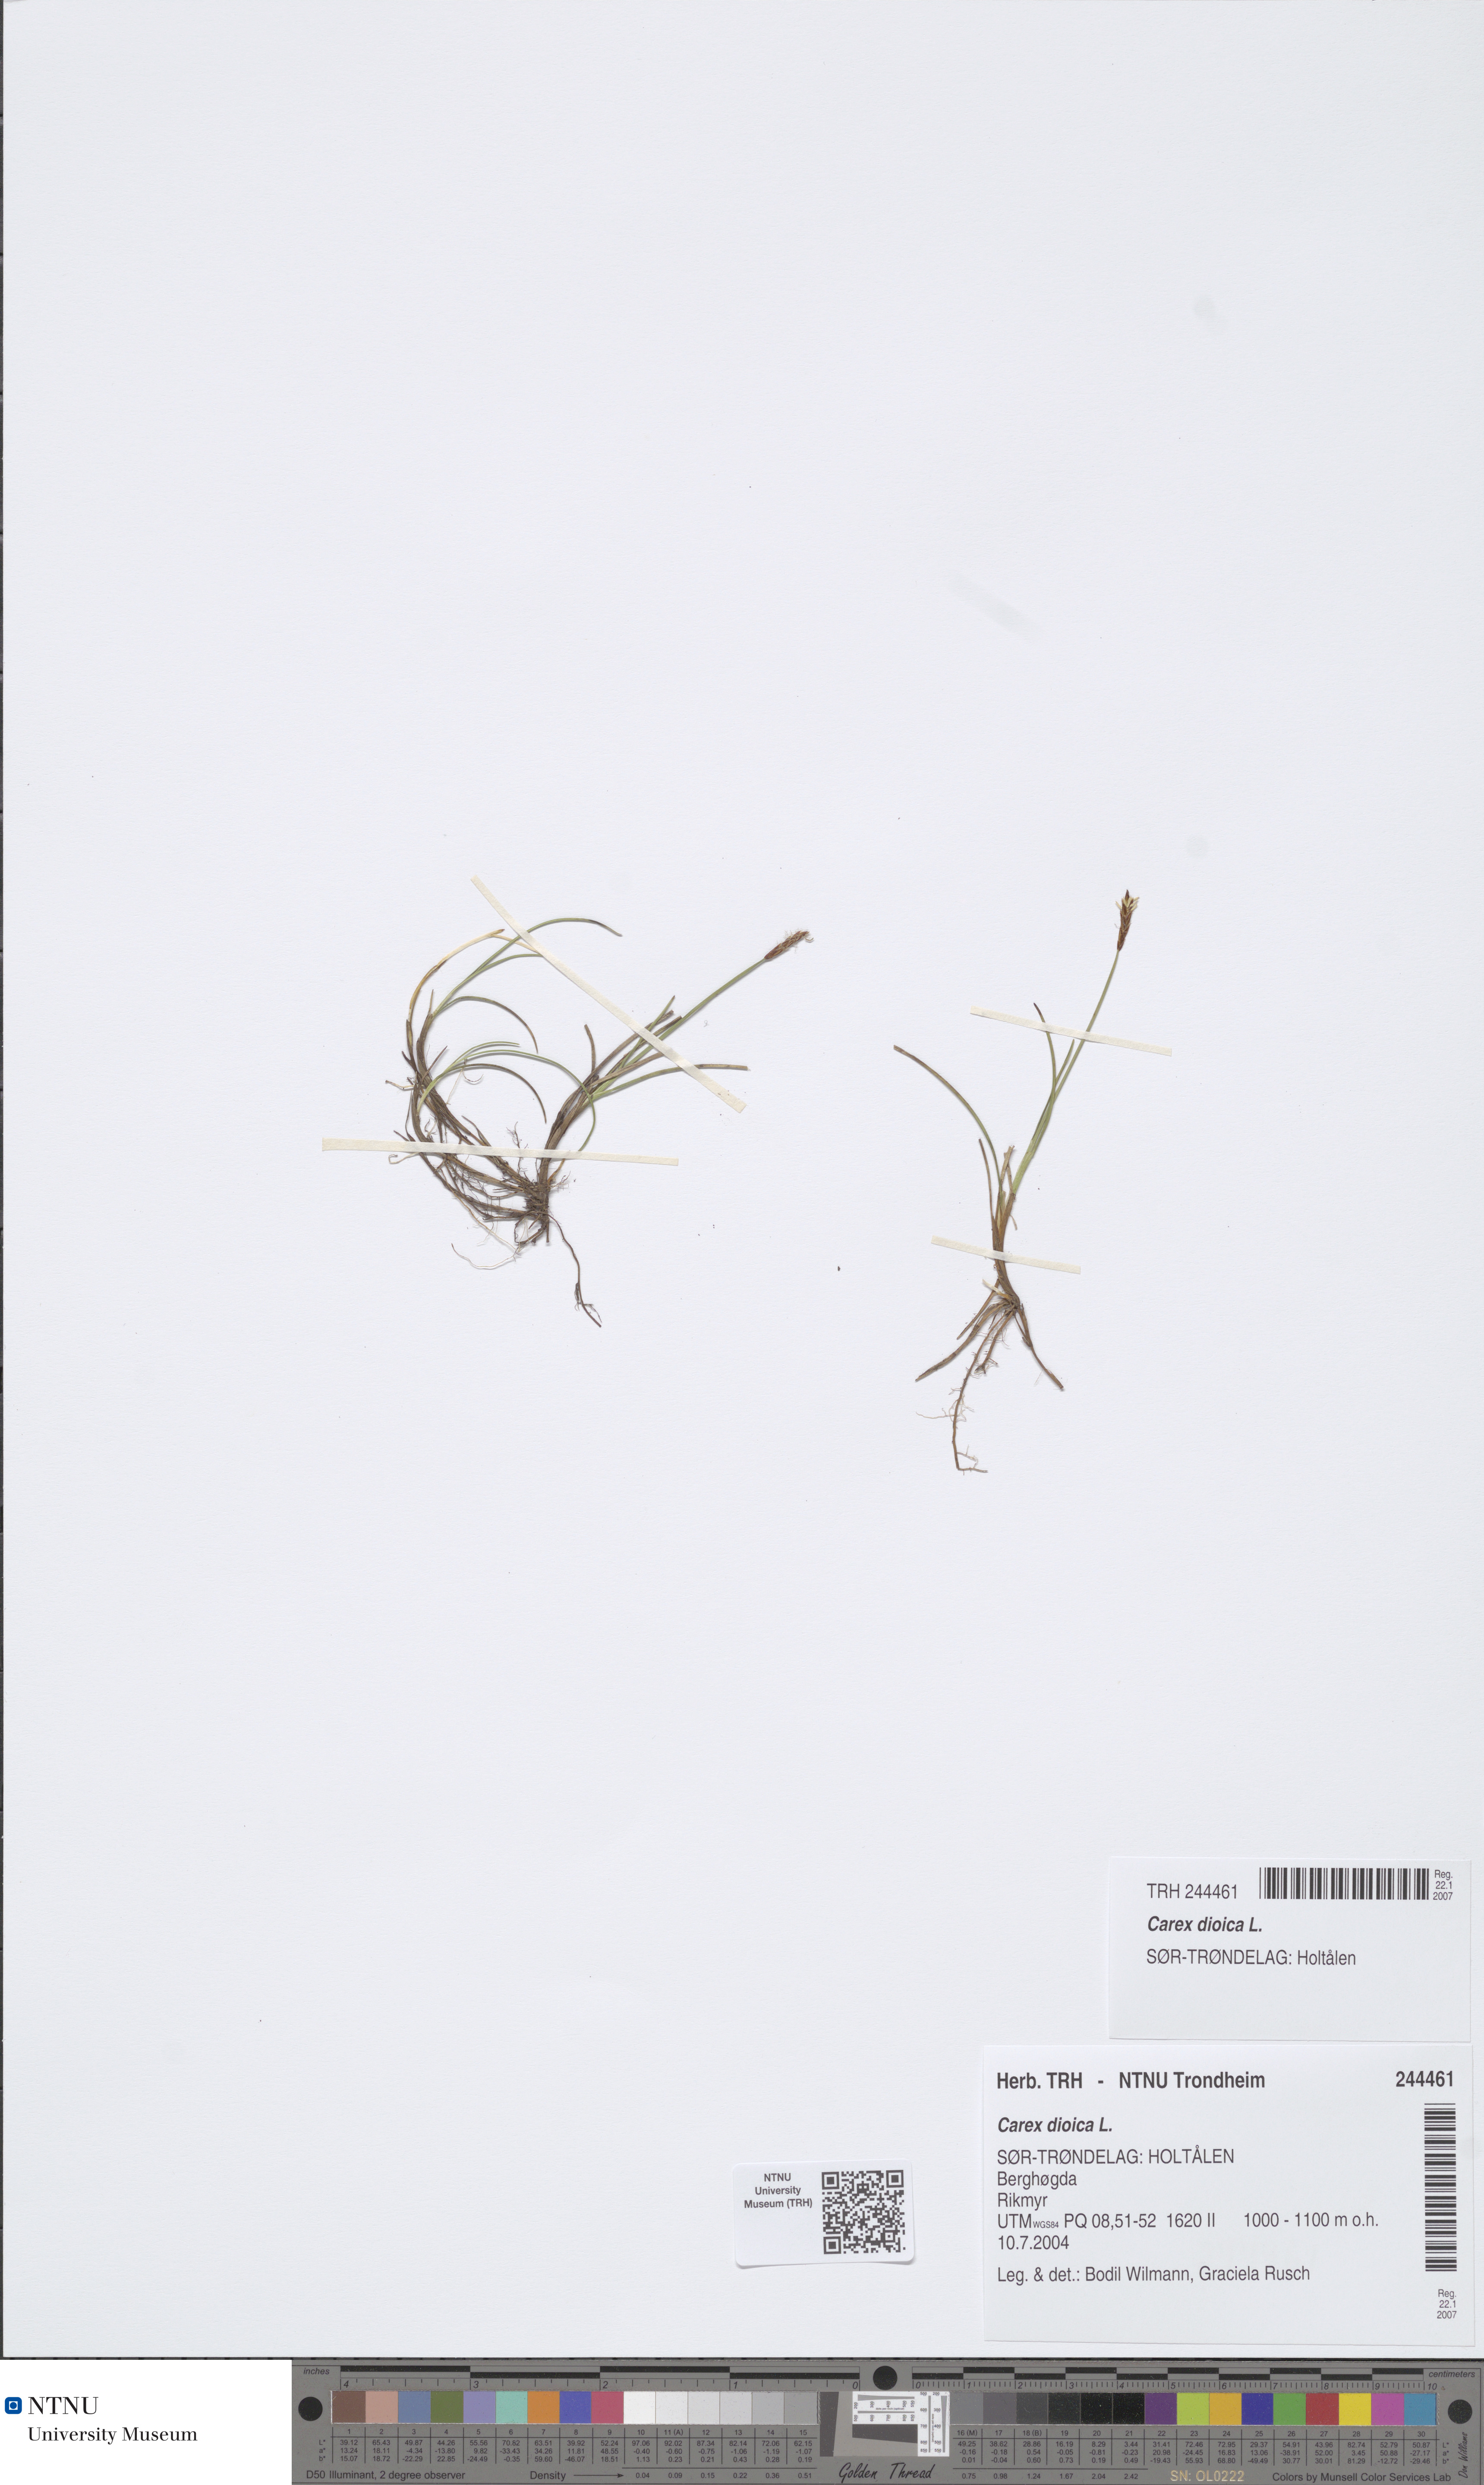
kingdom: Plantae
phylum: Tracheophyta
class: Liliopsida
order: Poales
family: Cyperaceae
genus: Carex
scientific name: Carex dioica
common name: Dioecious sedge
